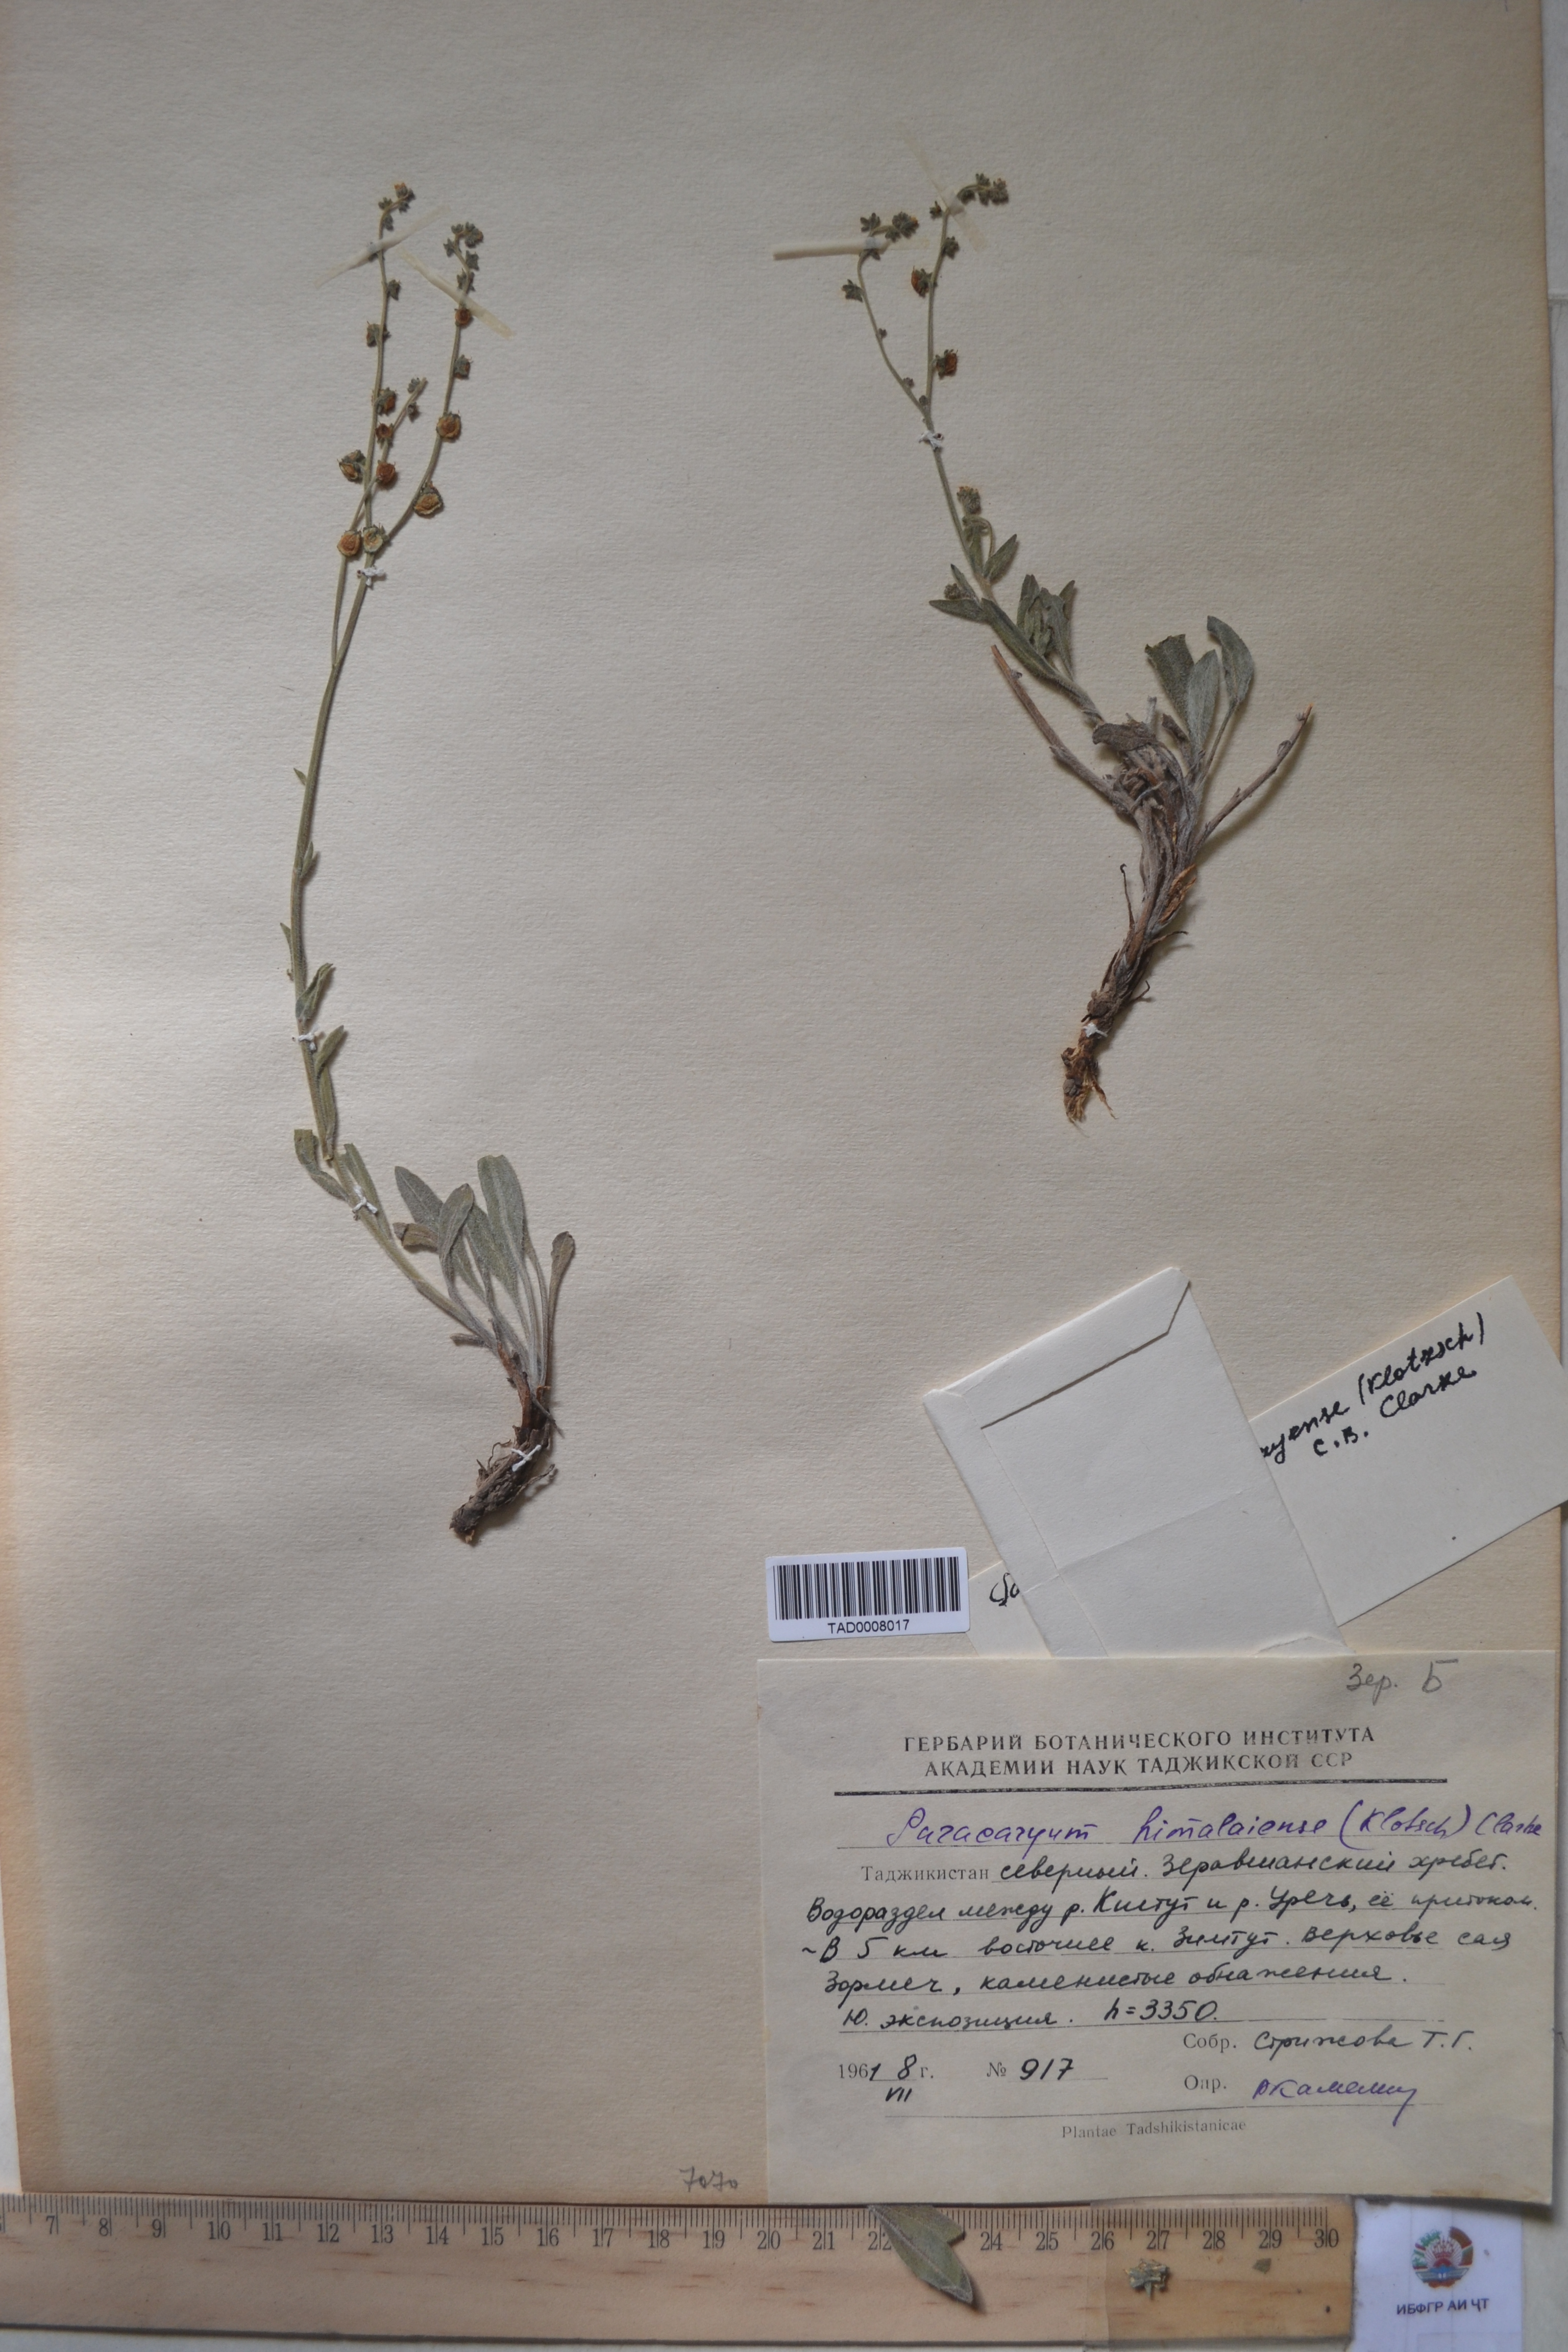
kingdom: Plantae
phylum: Tracheophyta
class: Magnoliopsida
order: Boraginales
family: Boraginaceae
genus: Paracaryum
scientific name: Paracaryum himalayense
